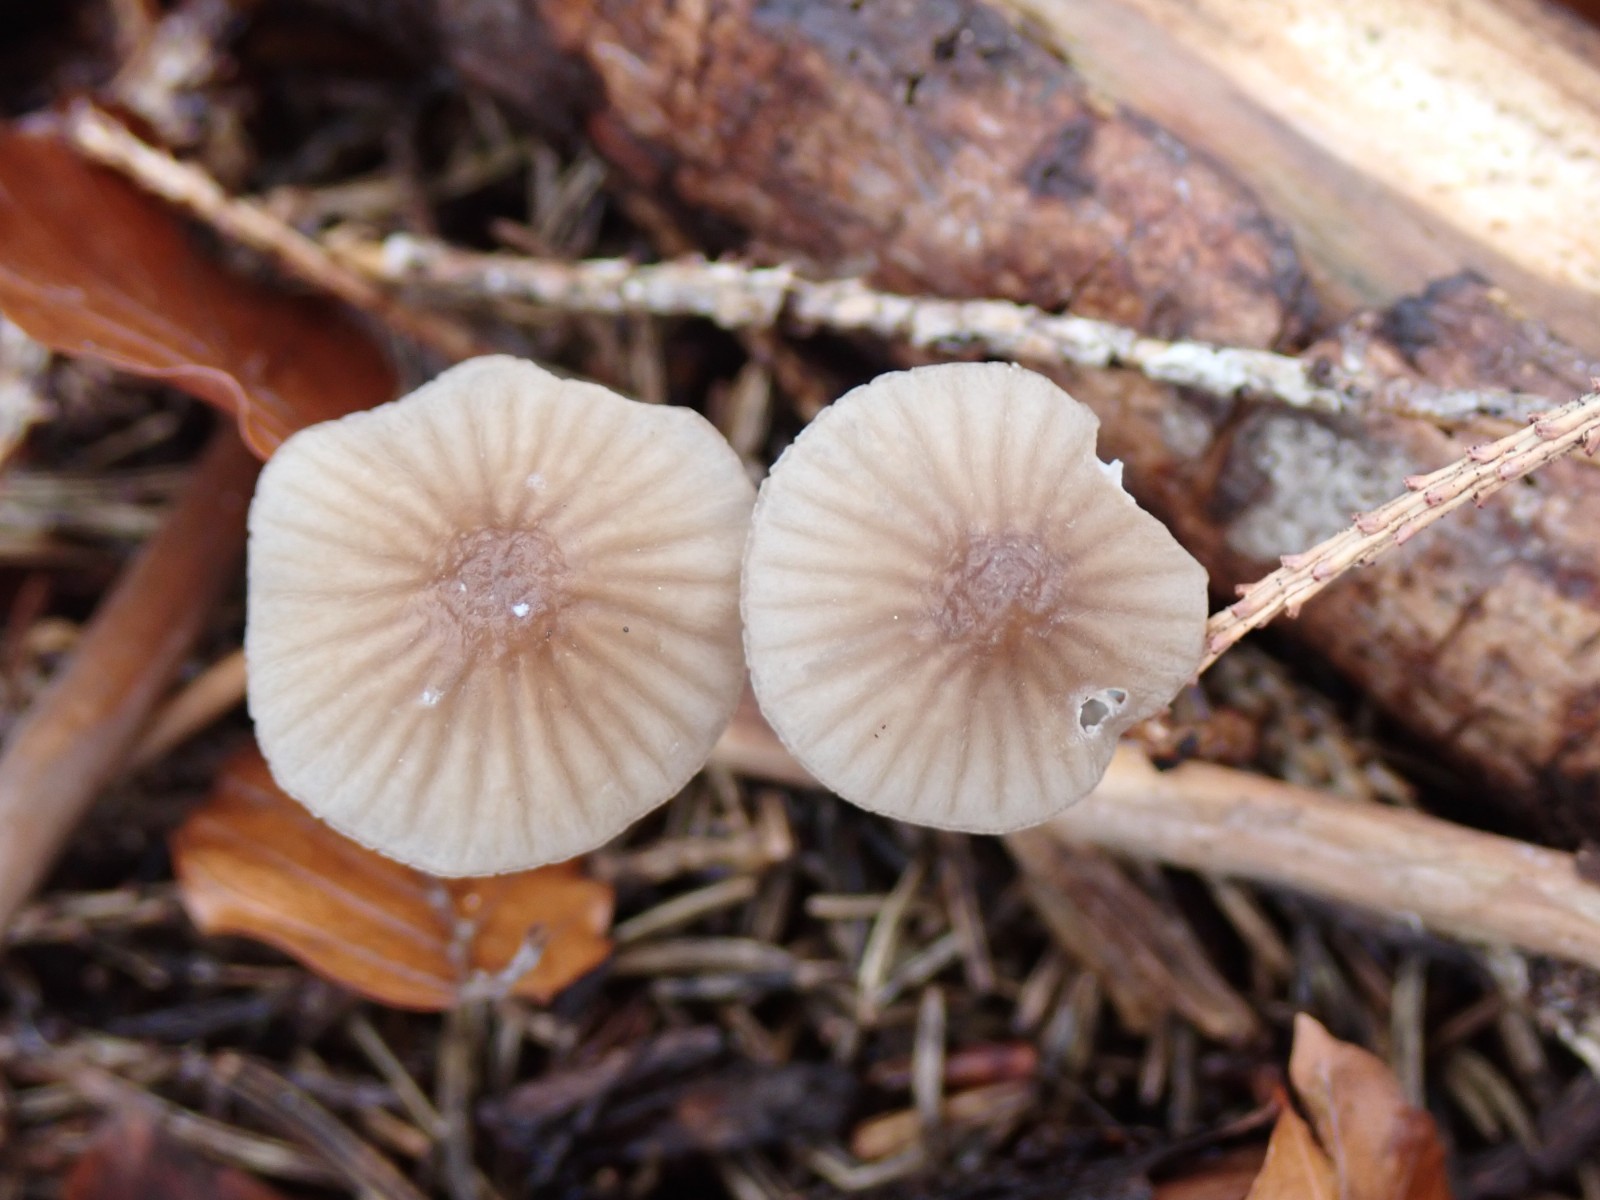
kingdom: Fungi
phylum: Basidiomycota
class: Agaricomycetes
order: Agaricales
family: Mycenaceae
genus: Mycena
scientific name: Mycena galopus
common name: hvidmælket huesvamp
